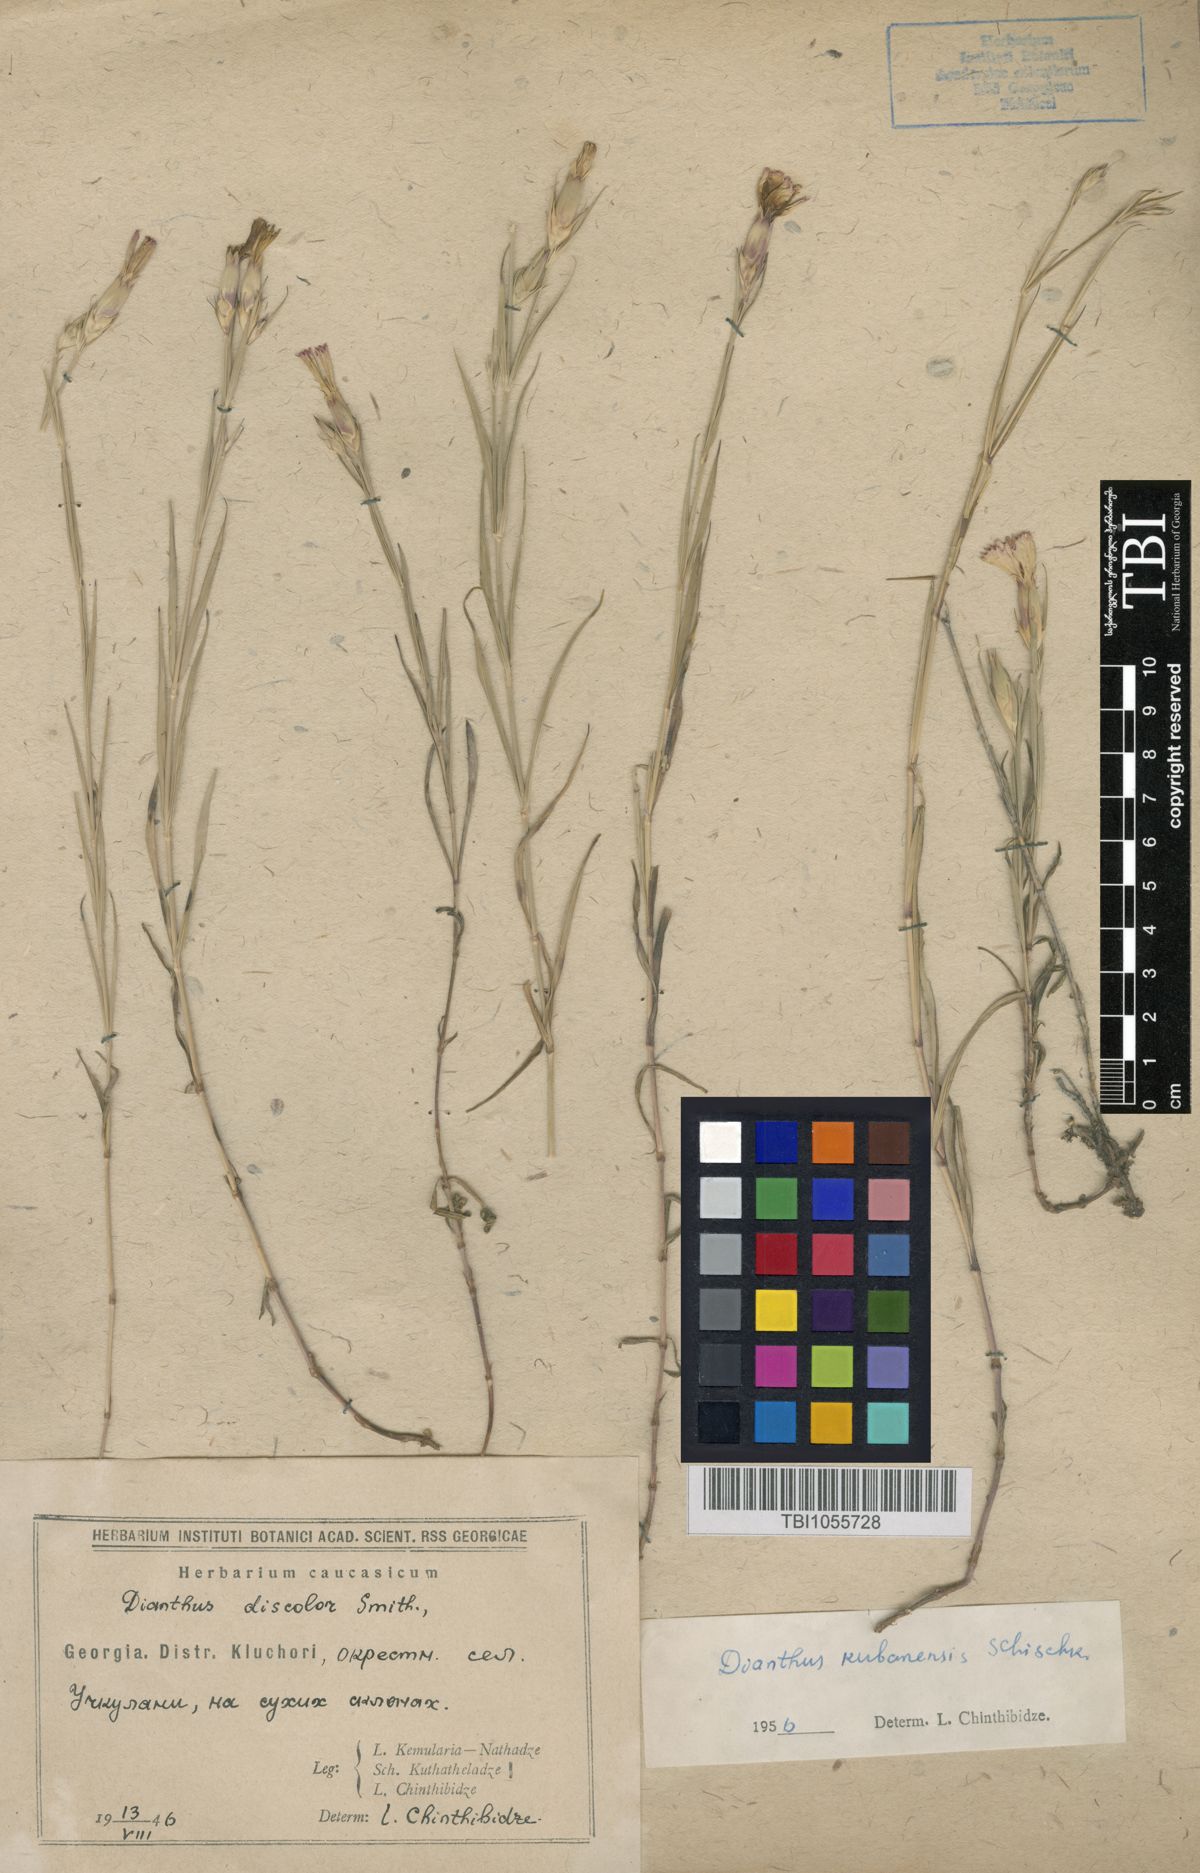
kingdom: Plantae
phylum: Tracheophyta
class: Magnoliopsida
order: Caryophyllales
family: Caryophyllaceae
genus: Dianthus
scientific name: Dianthus
